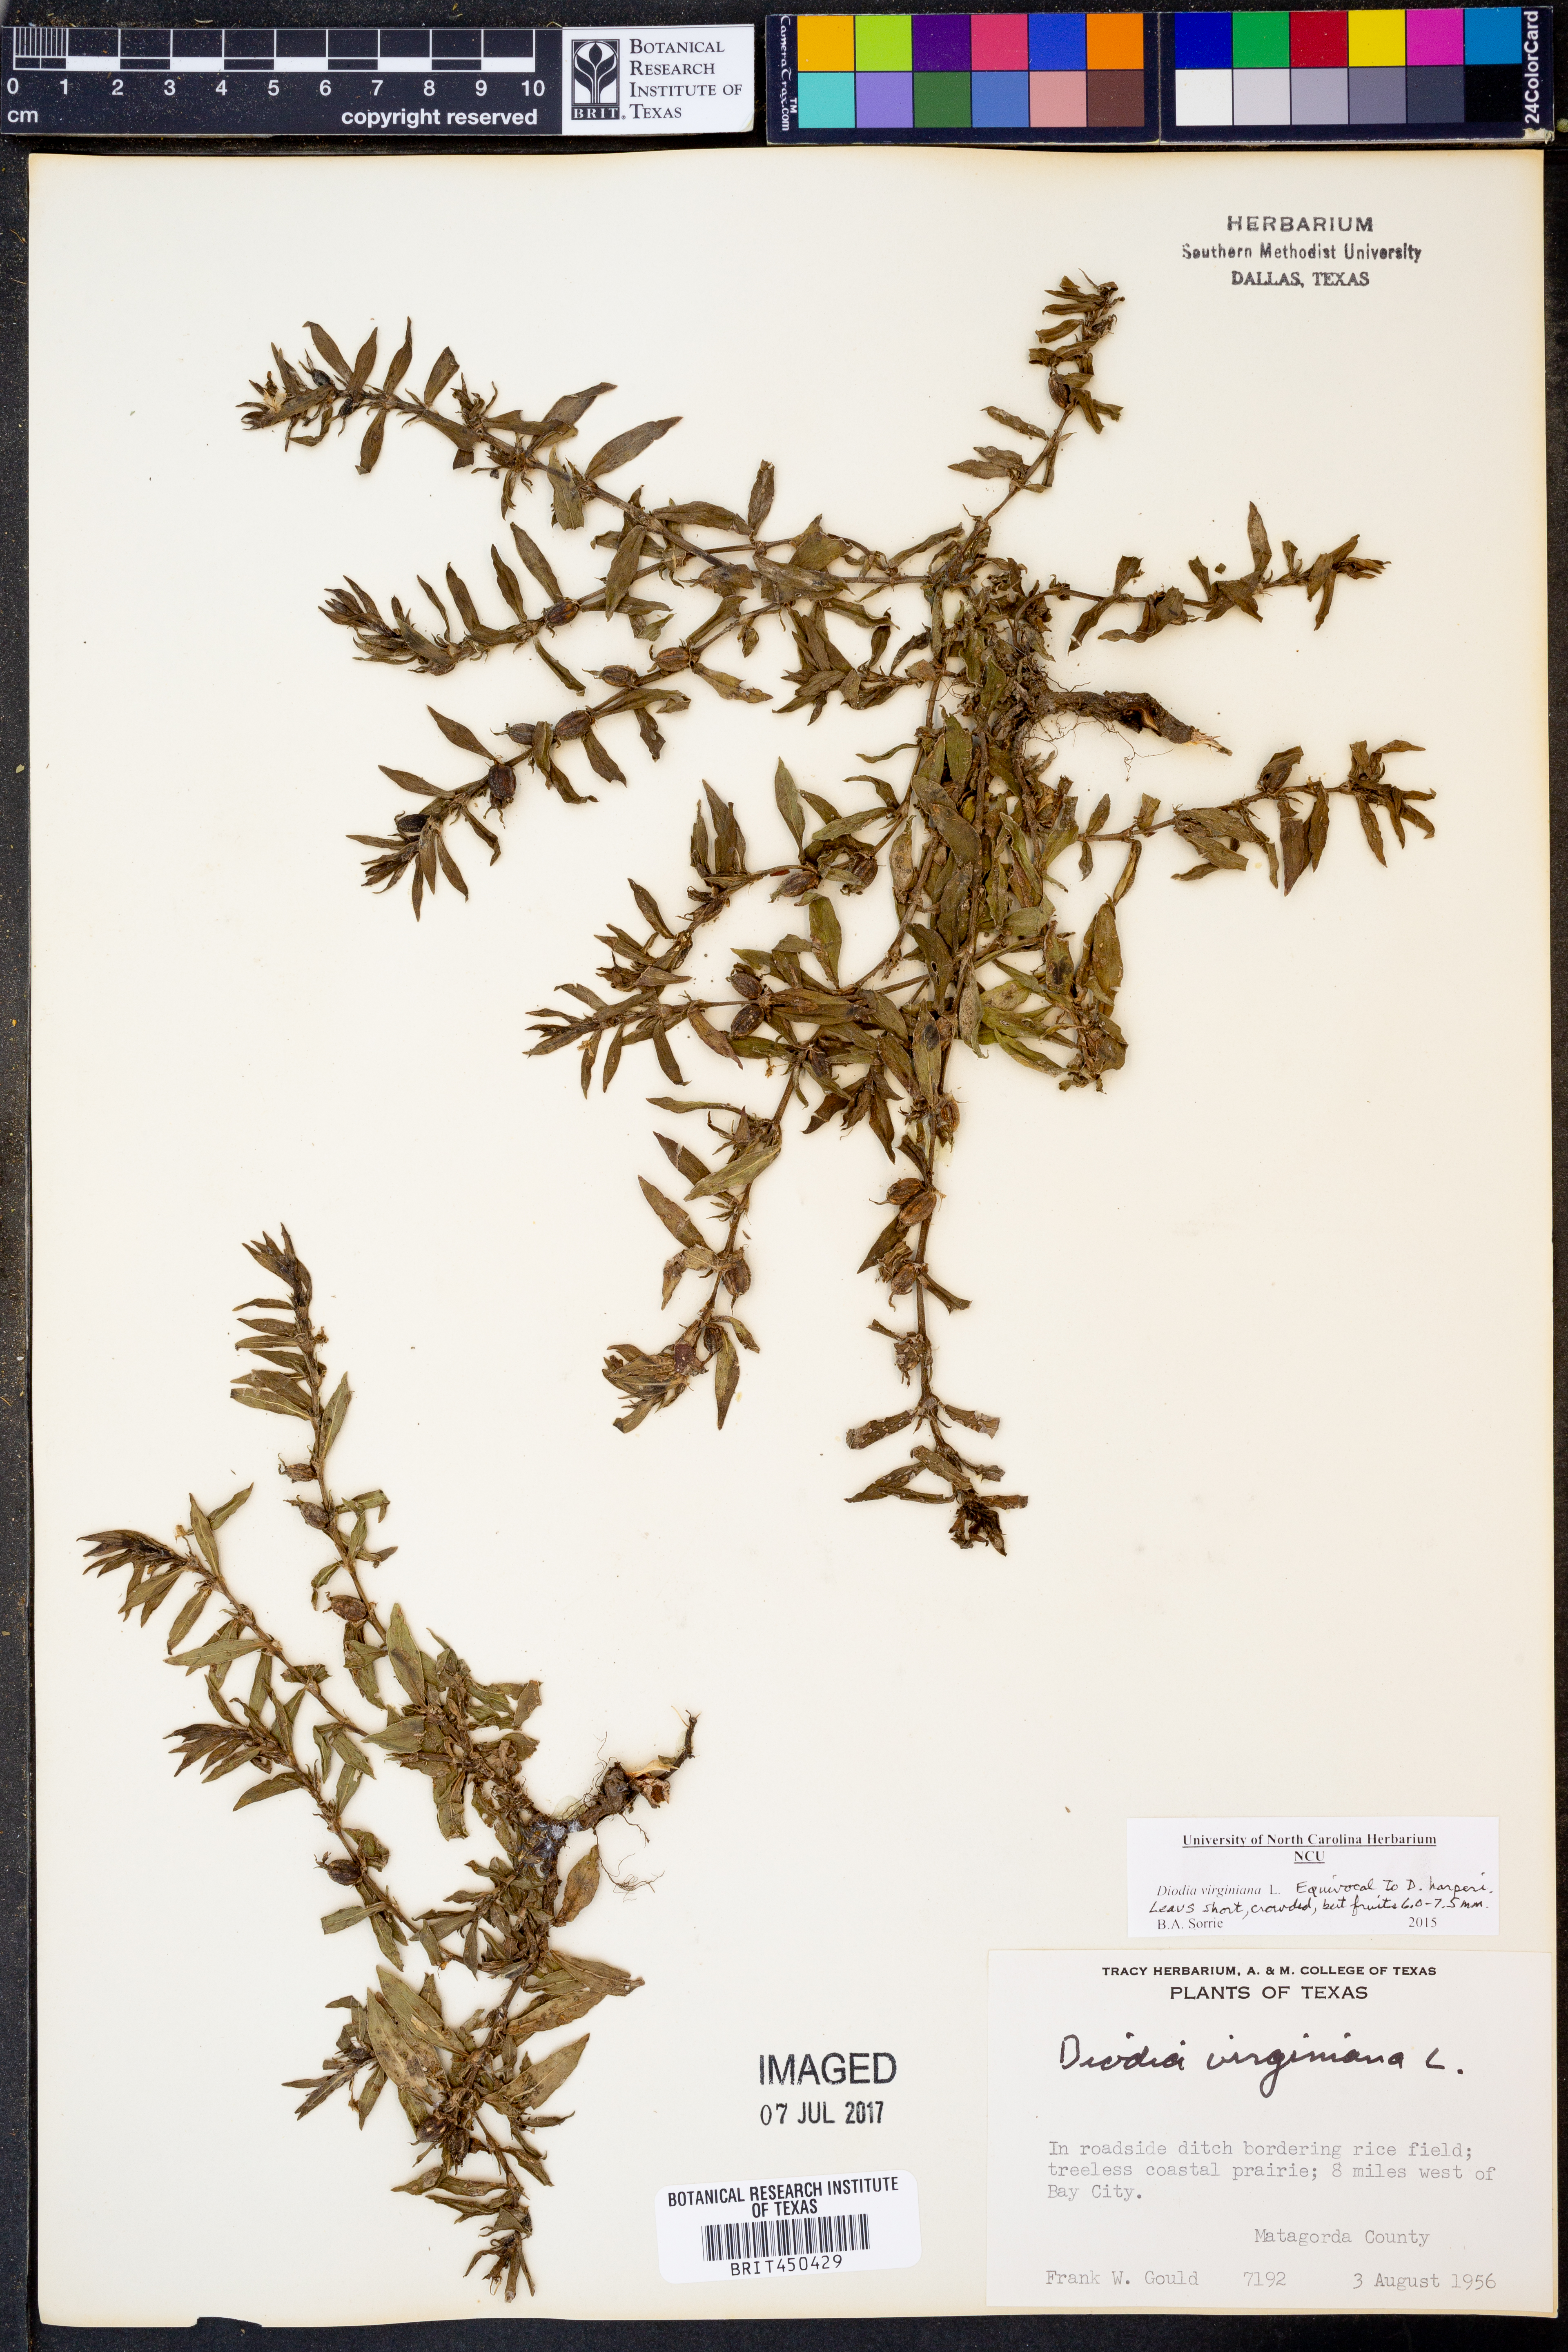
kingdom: Plantae
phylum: Tracheophyta
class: Magnoliopsida
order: Gentianales
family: Rubiaceae
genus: Diodia
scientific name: Diodia virginiana
